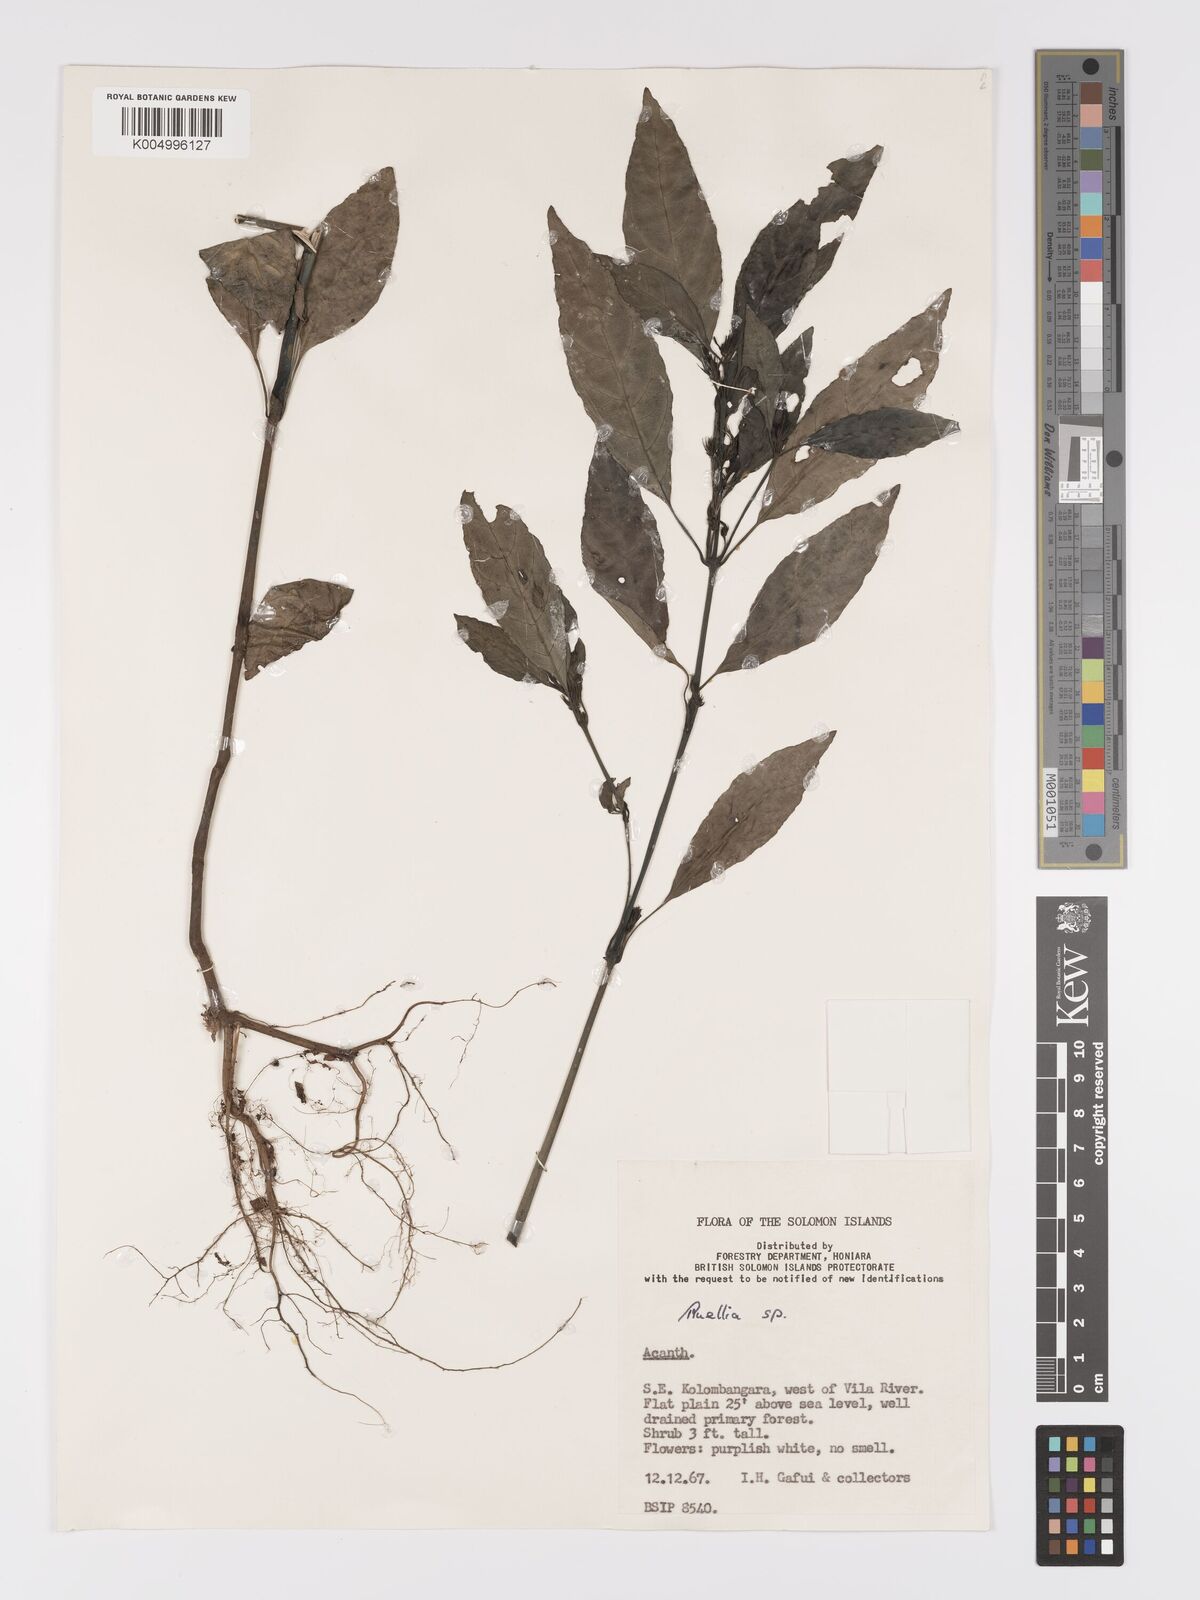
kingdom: Plantae
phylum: Tracheophyta
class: Magnoliopsida
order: Lamiales
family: Acanthaceae
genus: Ruellia
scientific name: Ruellia
